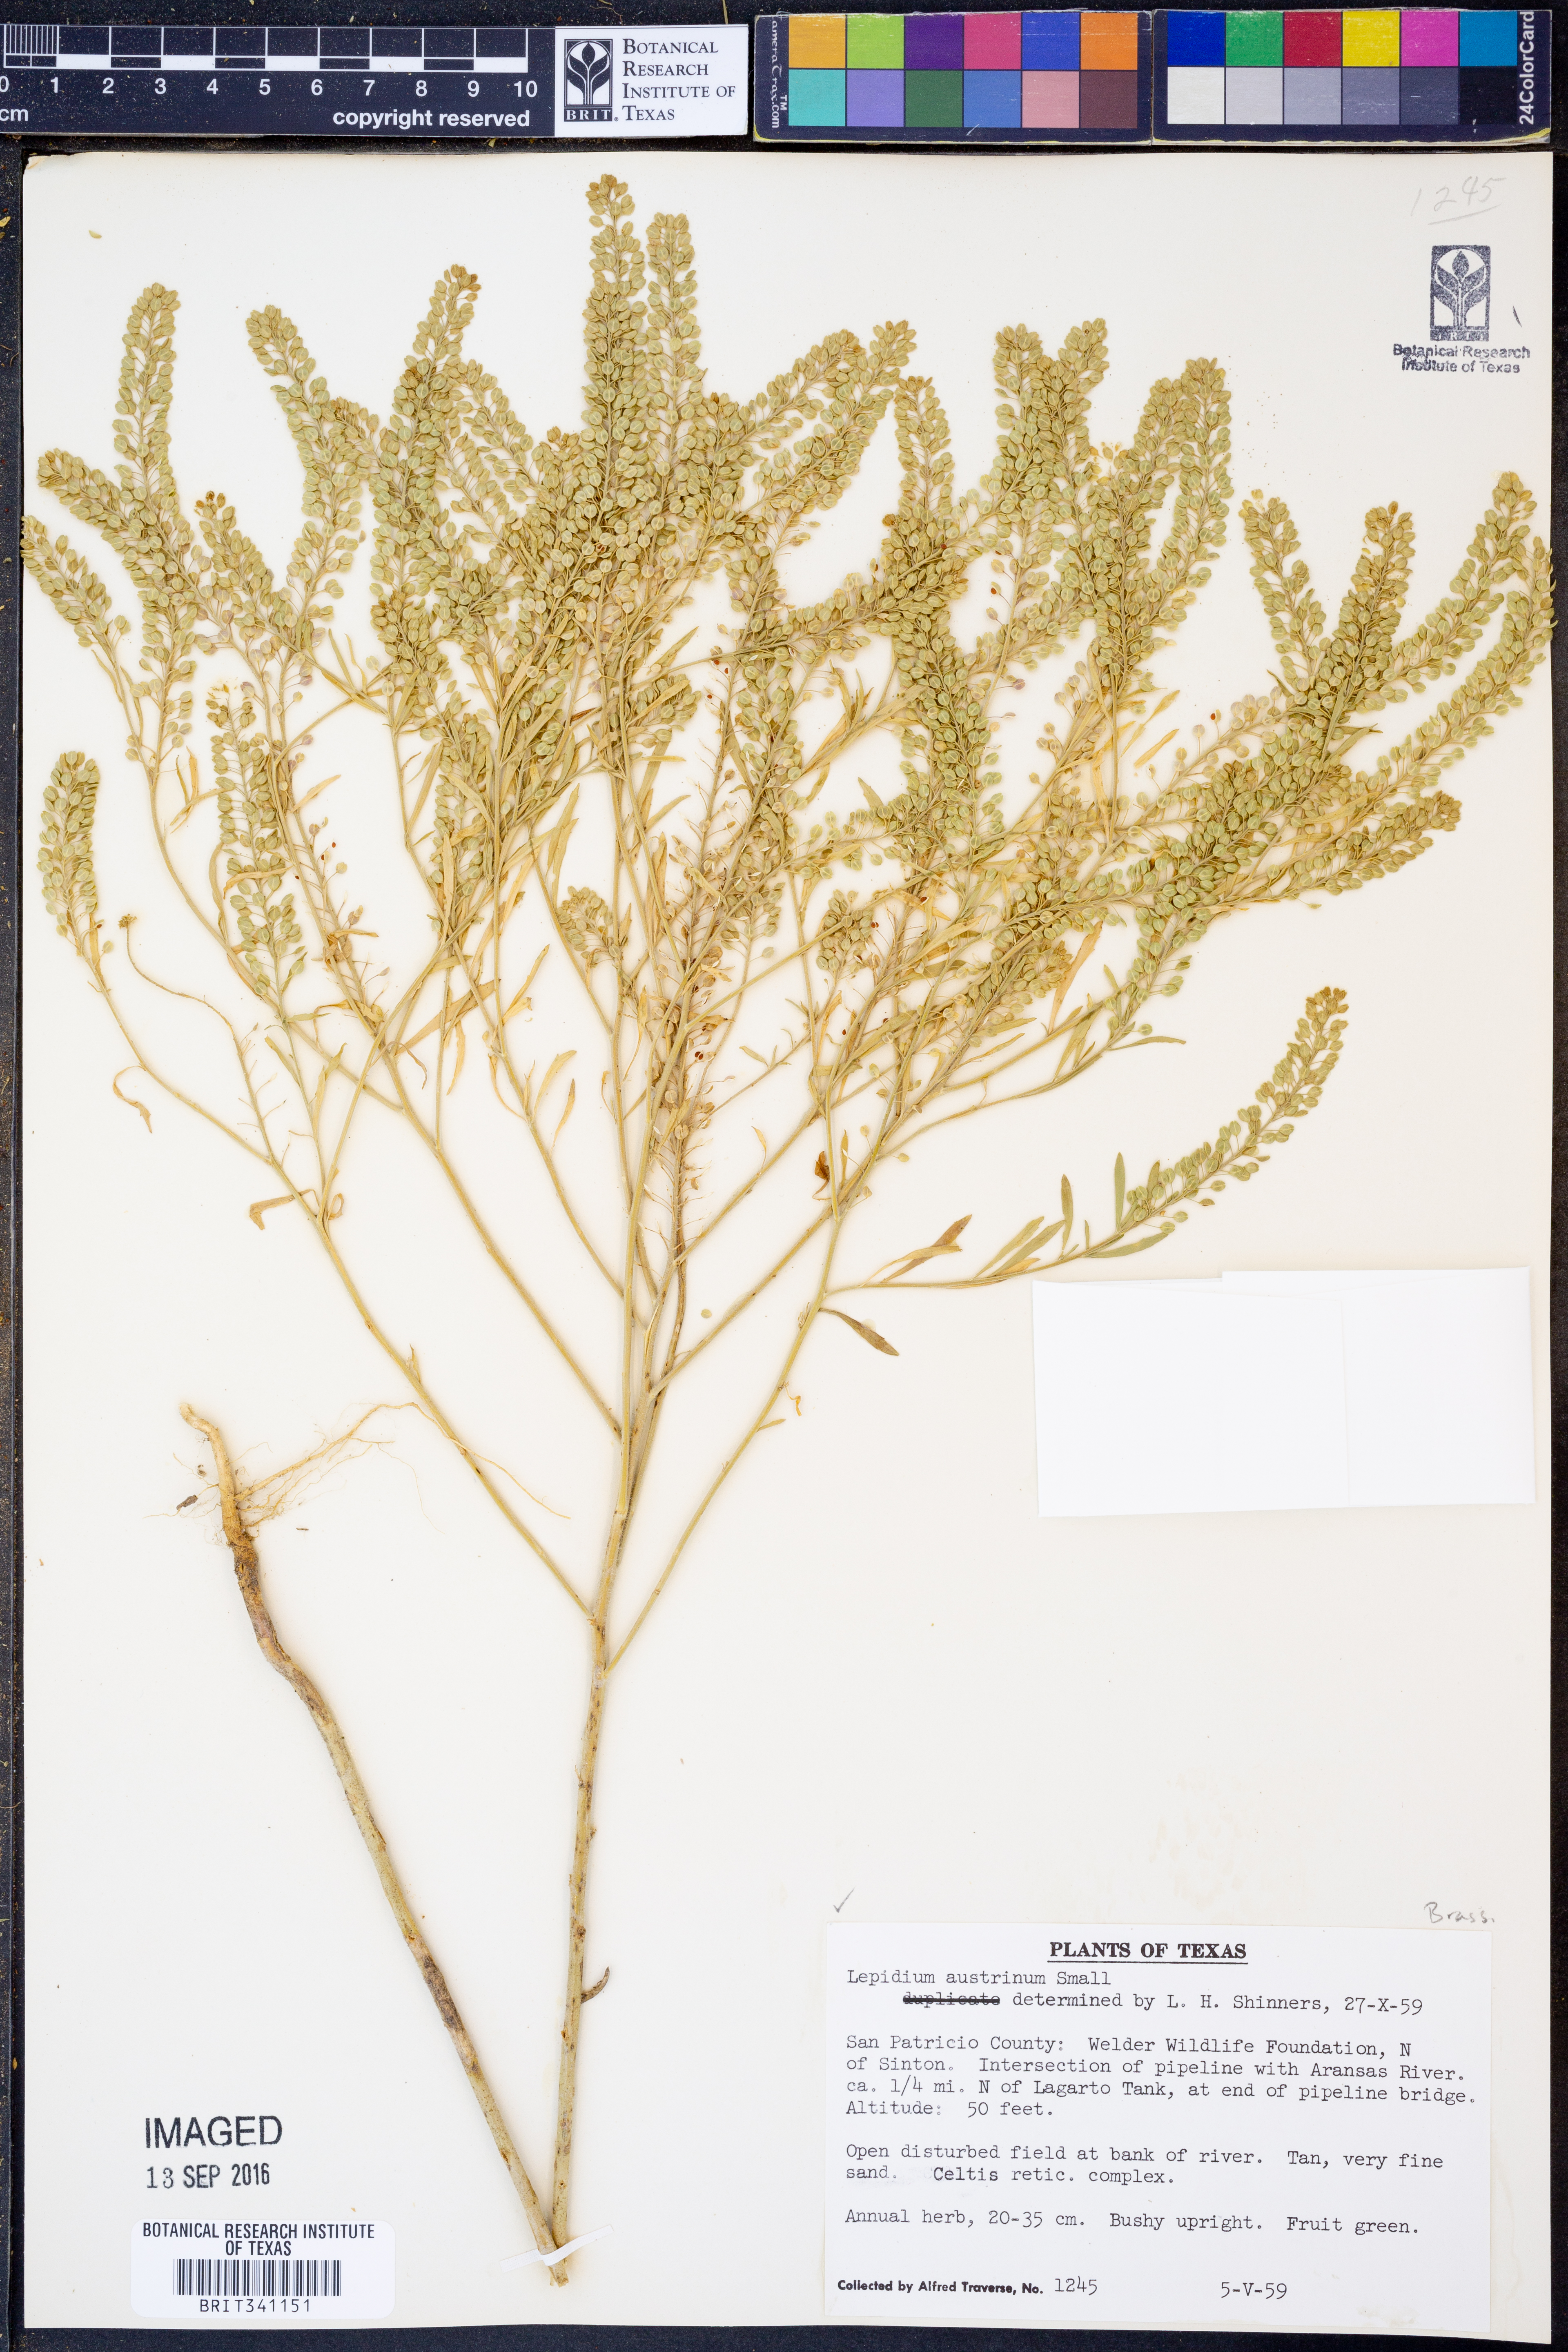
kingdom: Plantae
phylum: Tracheophyta
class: Magnoliopsida
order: Brassicales
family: Brassicaceae
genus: Lepidium
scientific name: Lepidium austrinum
